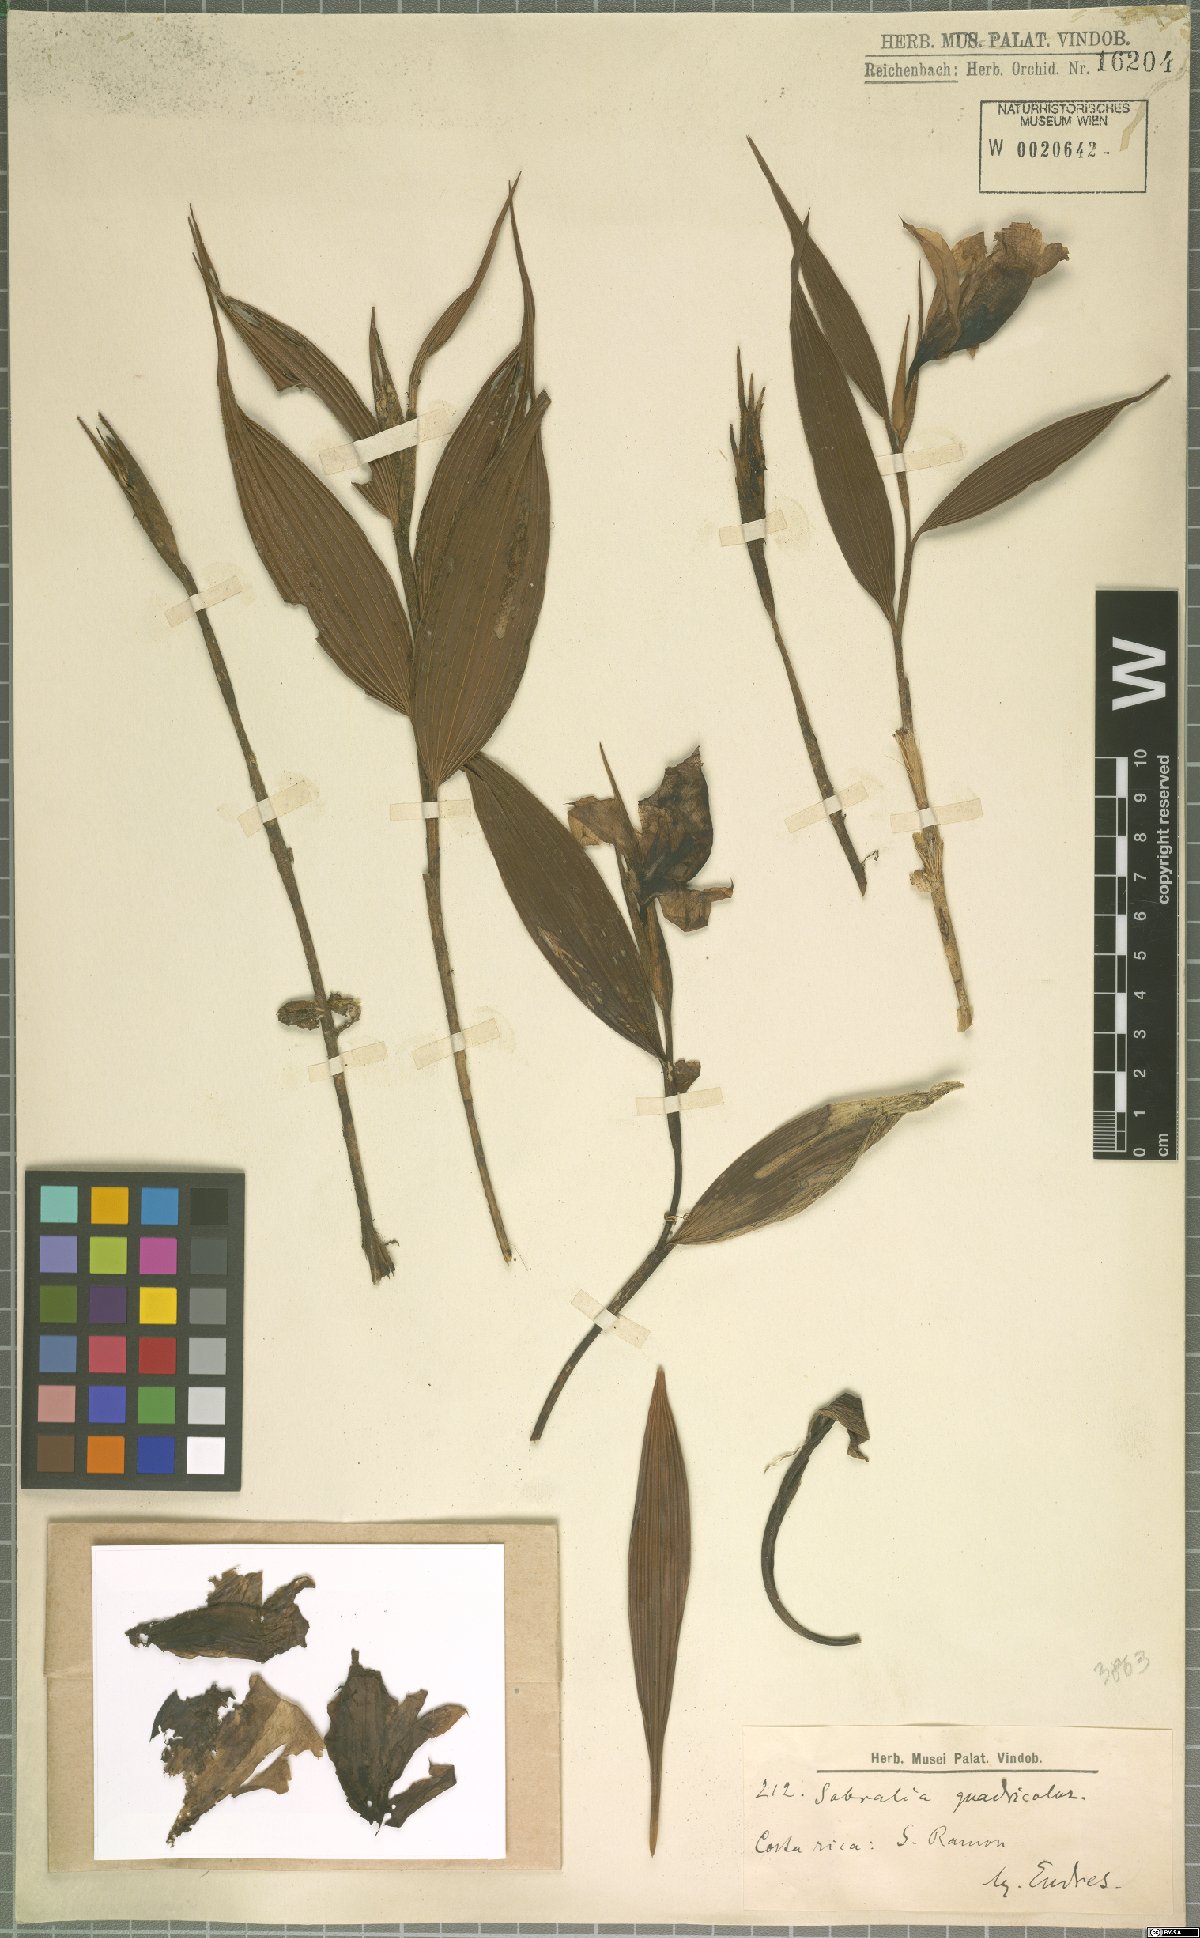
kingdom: Plantae
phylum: Tracheophyta
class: Liliopsida
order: Asparagales
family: Orchidaceae
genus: Sobralia
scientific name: Sobralia
